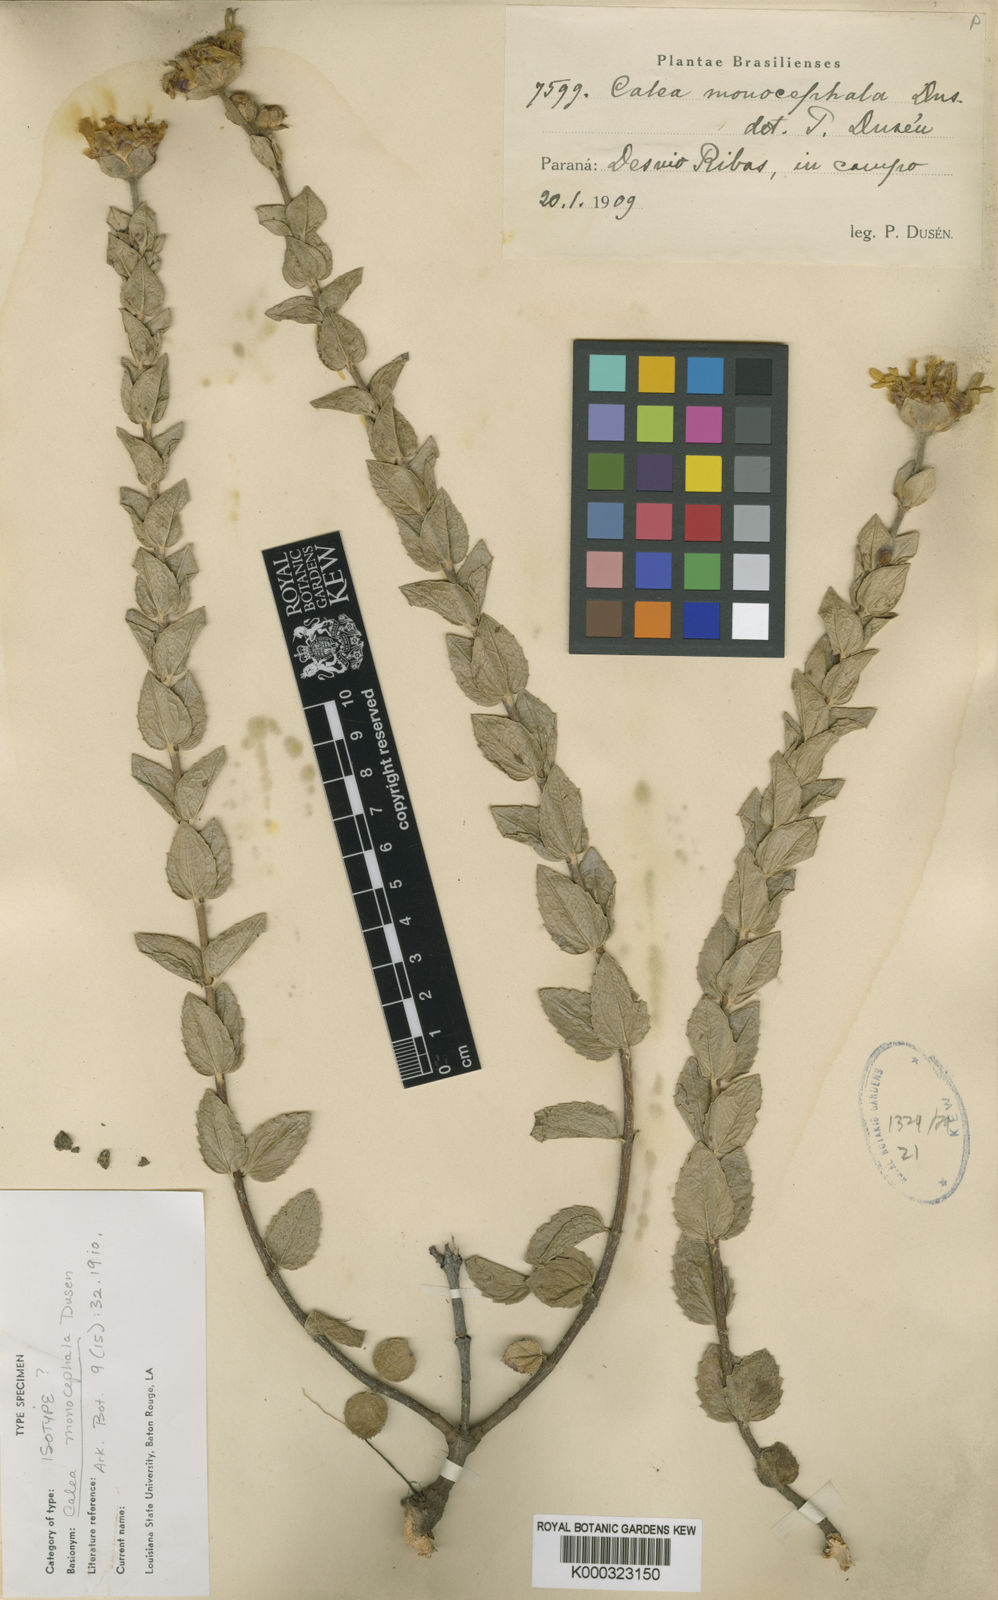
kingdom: Plantae
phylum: Tracheophyta
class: Magnoliopsida
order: Asterales
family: Asteraceae
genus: Calea
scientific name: Calea monocephala
